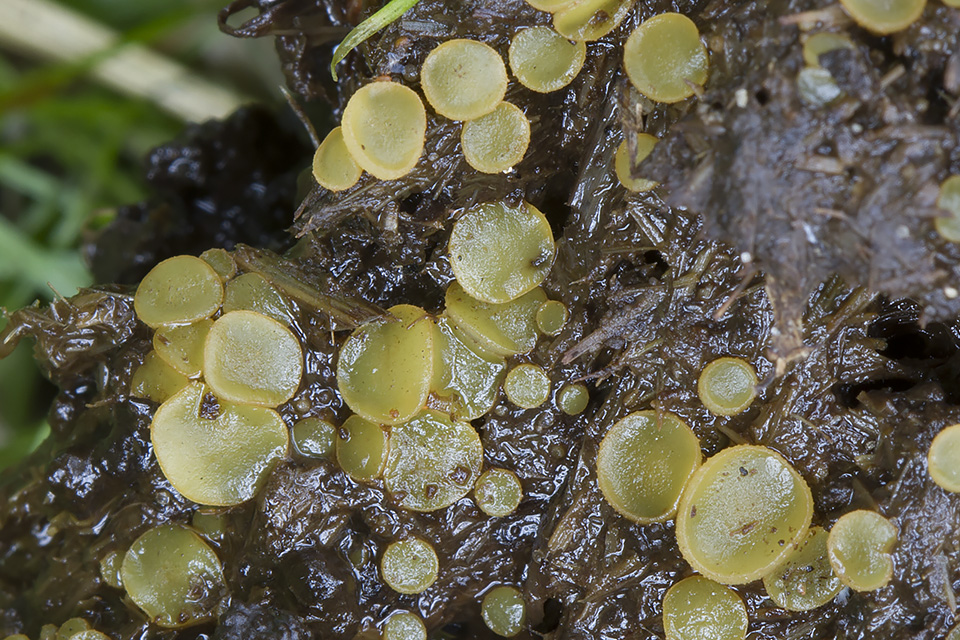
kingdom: Fungi
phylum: Ascomycota
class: Pezizomycetes
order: Pezizales
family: Ascobolaceae
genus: Ascobolus
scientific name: Ascobolus furfuraceus
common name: almindelig prikbæger
